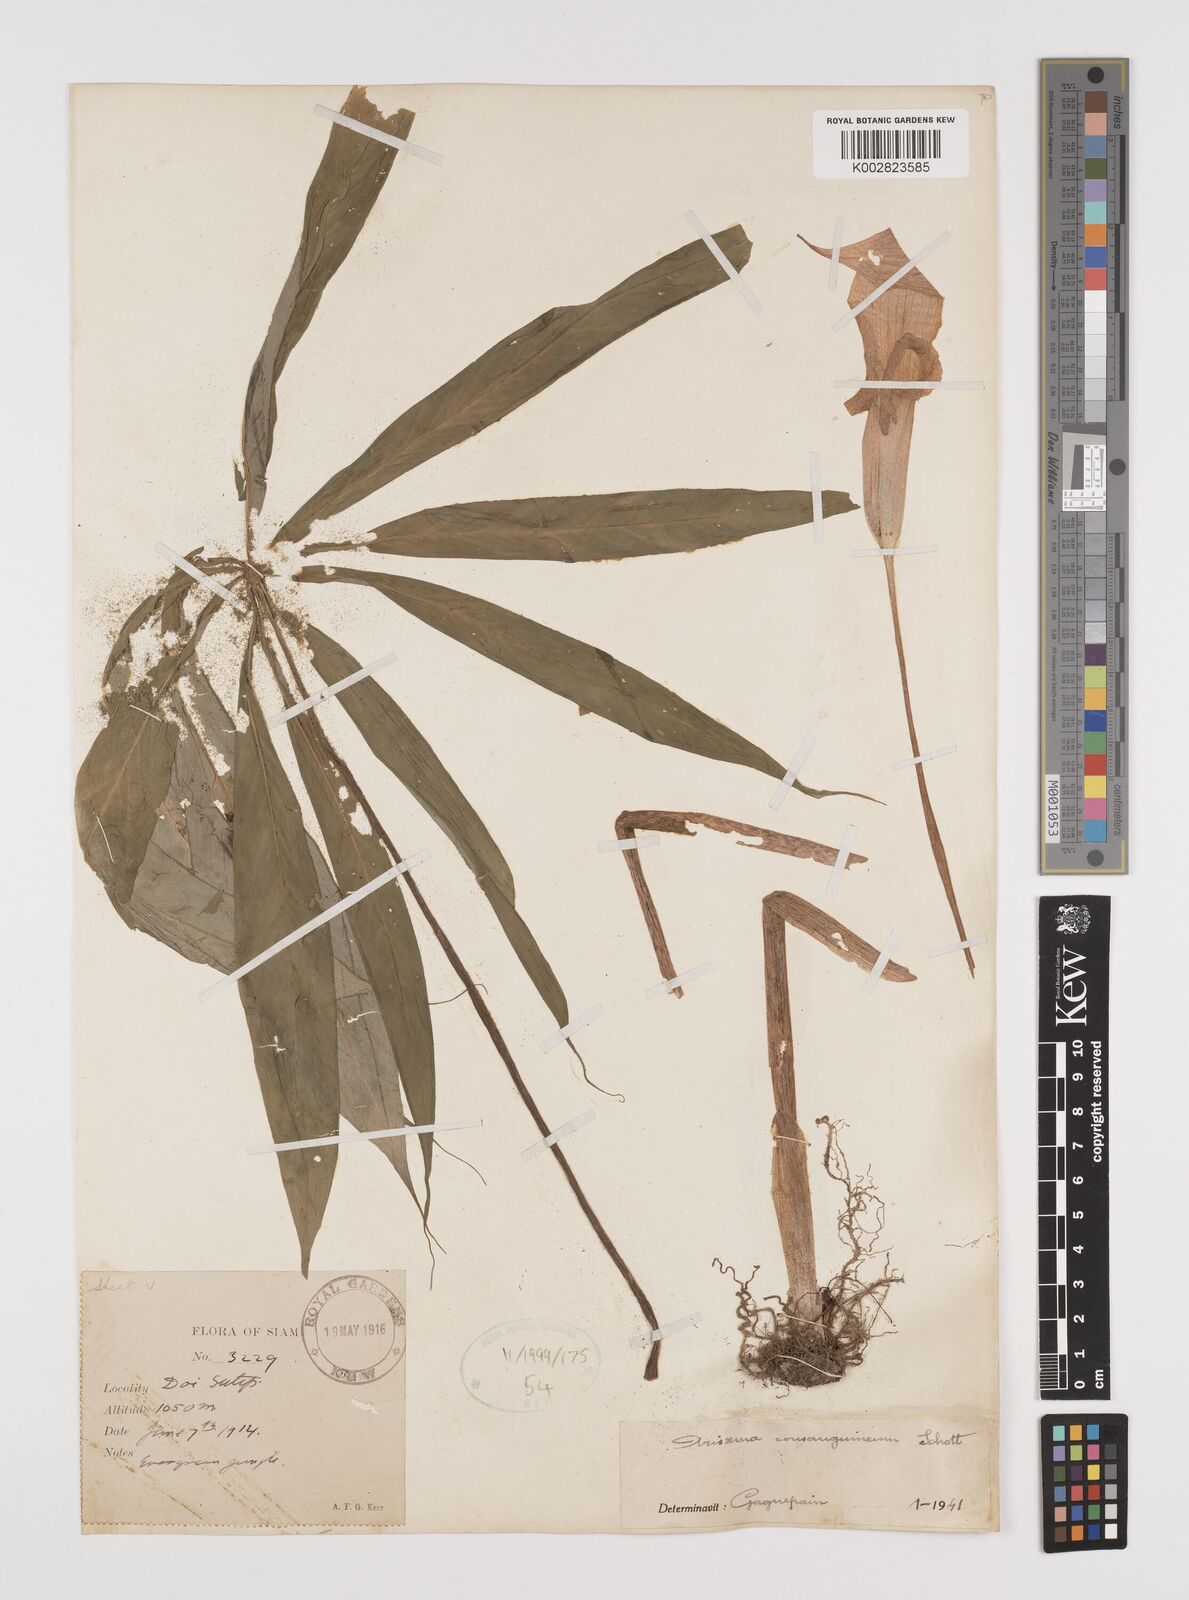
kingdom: Plantae
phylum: Tracheophyta
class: Liliopsida
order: Alismatales
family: Araceae
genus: Arisaema
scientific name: Arisaema consanguineum
